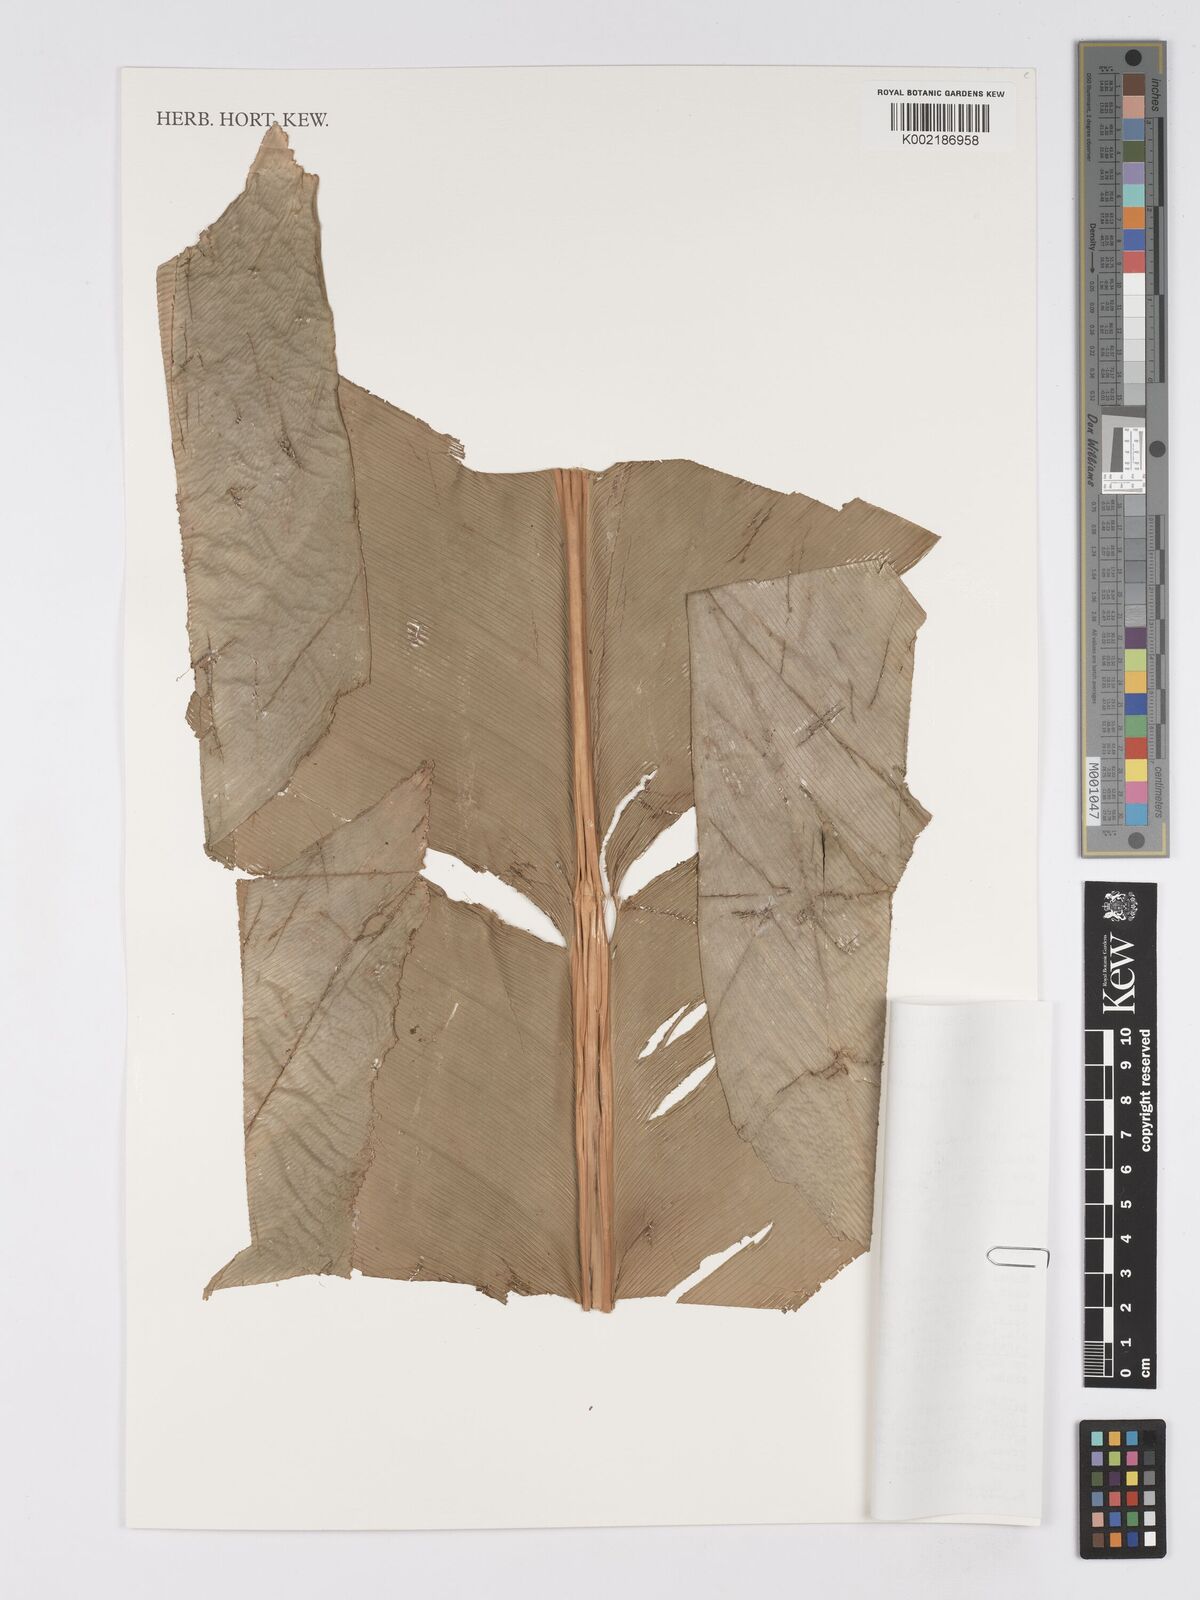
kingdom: Plantae
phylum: Tracheophyta
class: Liliopsida
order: Zingiberales
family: Marantaceae
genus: Phrynium
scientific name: Phrynium giganteum
